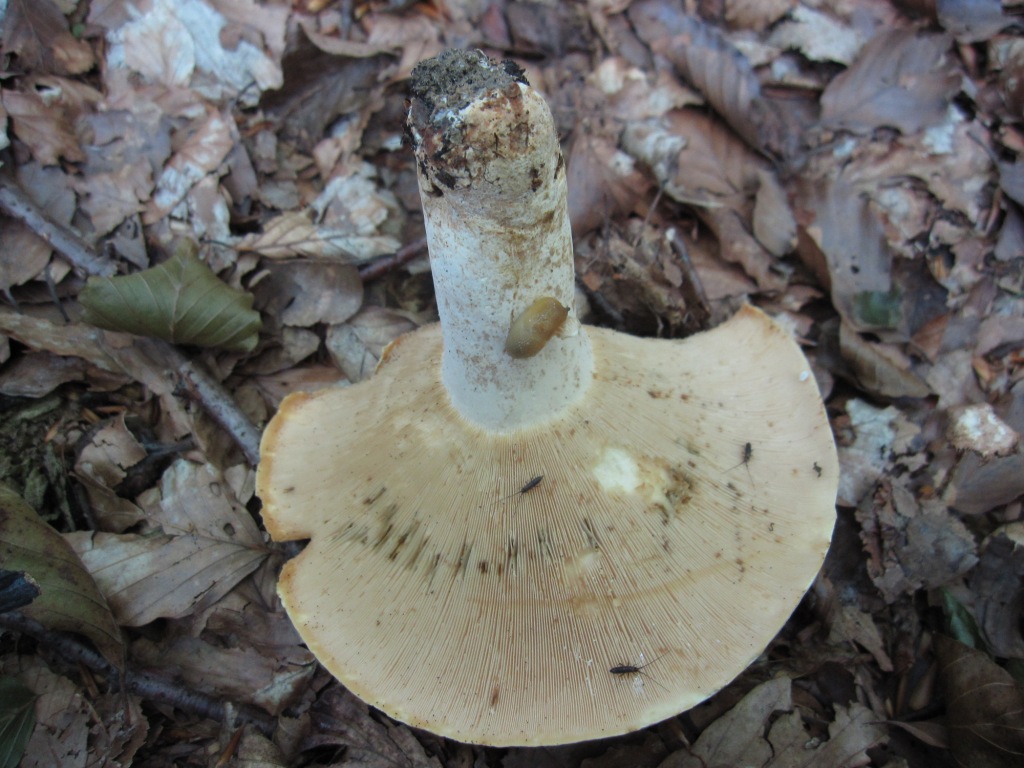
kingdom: Fungi
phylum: Basidiomycota
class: Agaricomycetes
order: Russulales
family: Russulaceae
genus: Lactifluus
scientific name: Lactifluus piperatus
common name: peber-mælkehat
